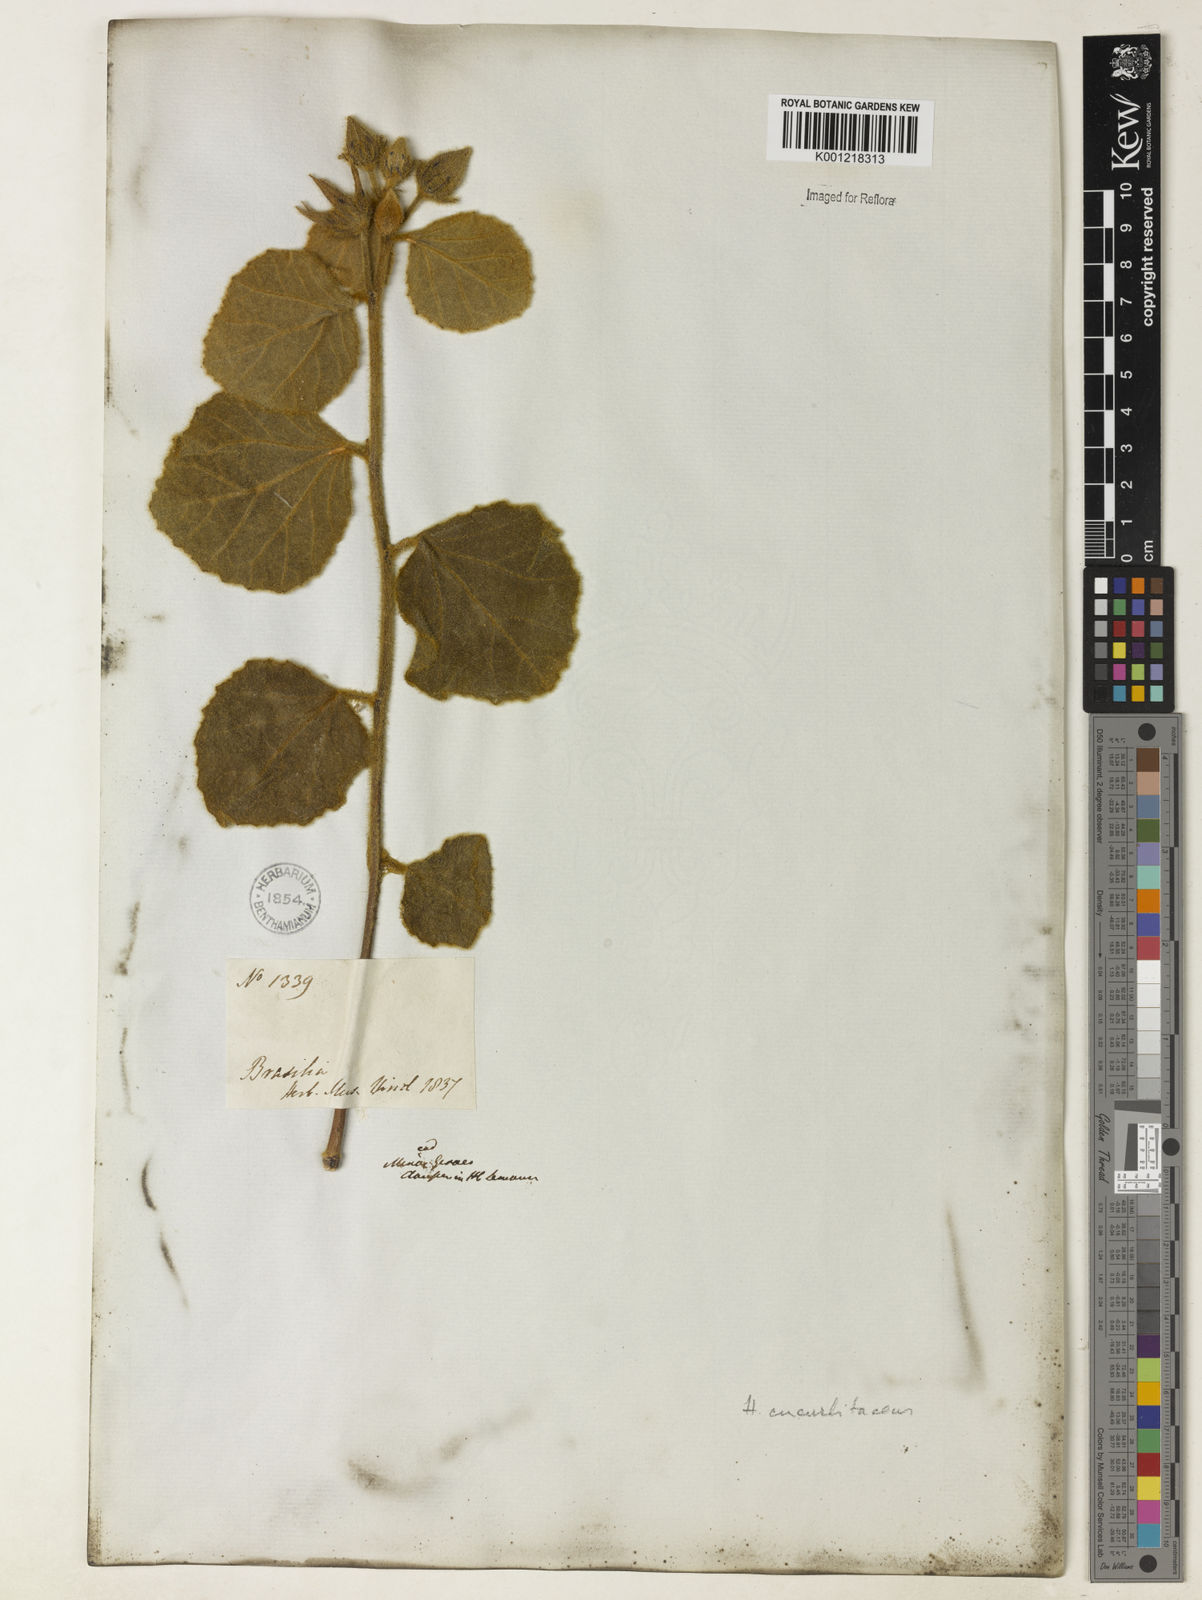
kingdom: Plantae
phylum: Tracheophyta
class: Magnoliopsida
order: Malvales
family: Malvaceae
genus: Hibiscus
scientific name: Hibiscus cucurbitaceus
